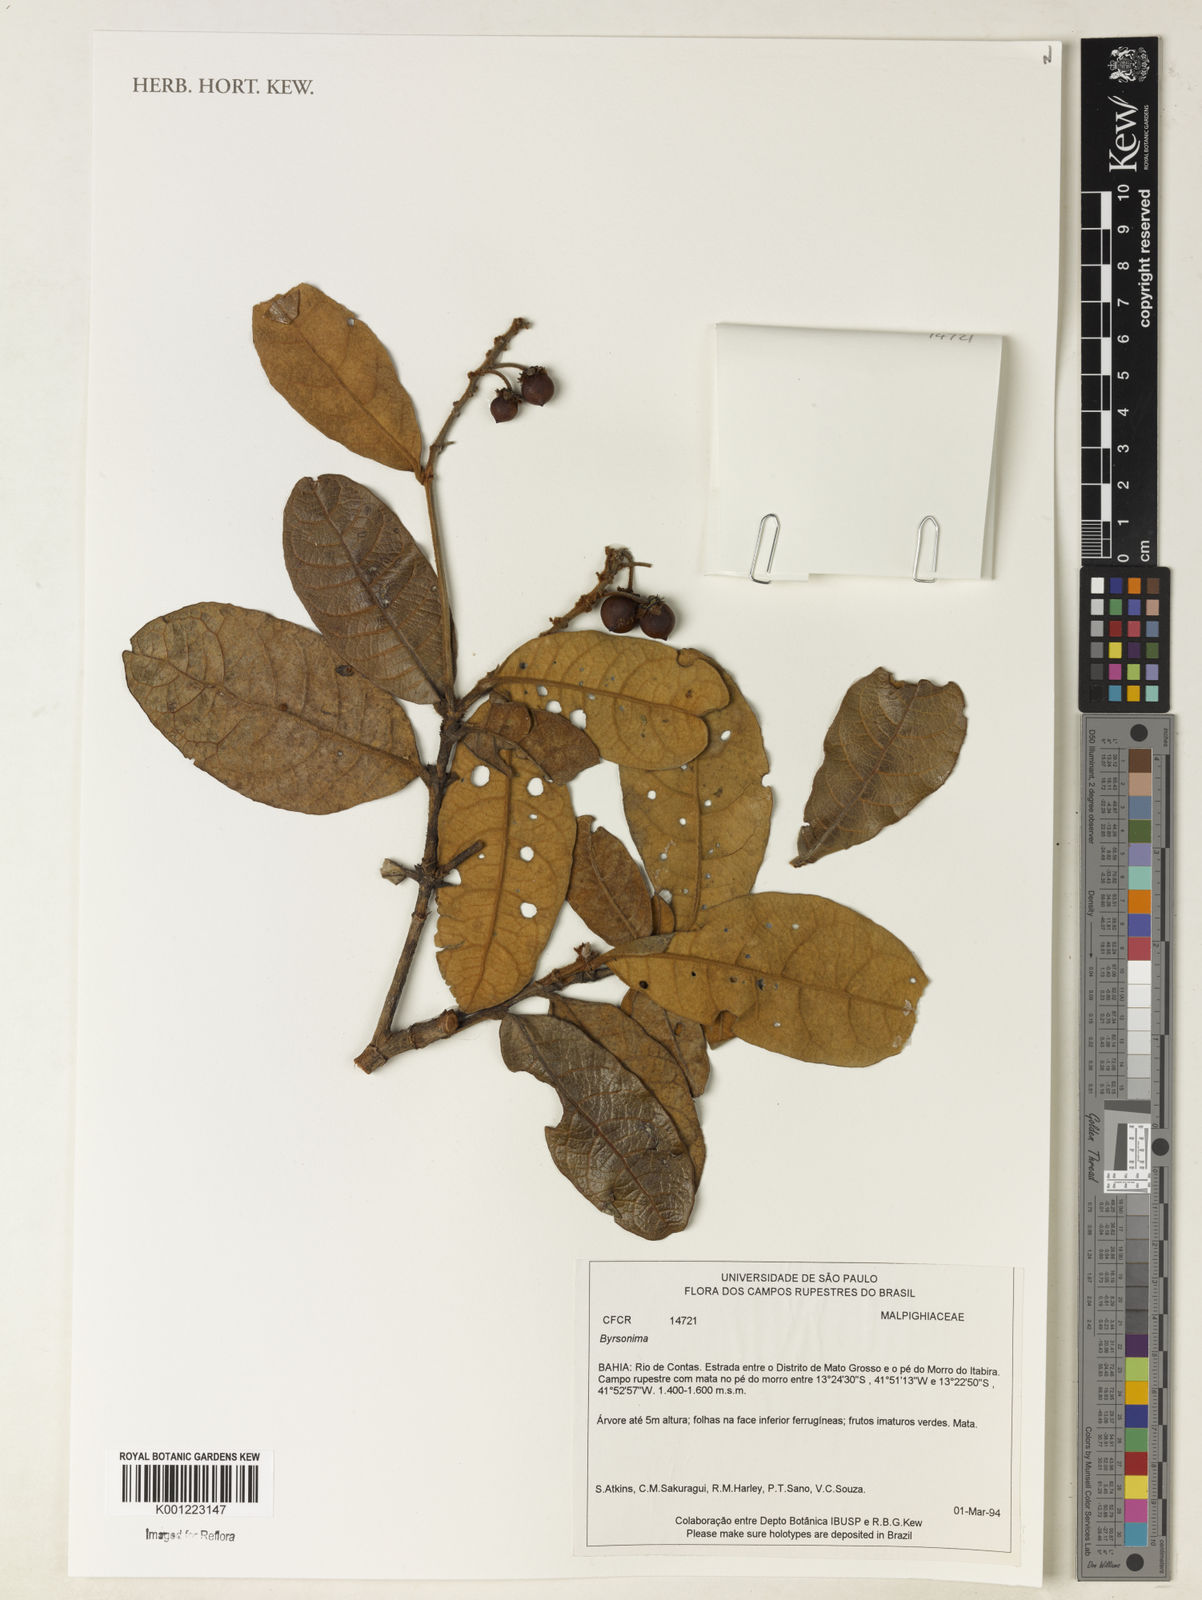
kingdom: Plantae
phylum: Tracheophyta
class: Magnoliopsida
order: Malpighiales
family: Malpighiaceae
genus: Byrsonima
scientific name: Byrsonima
